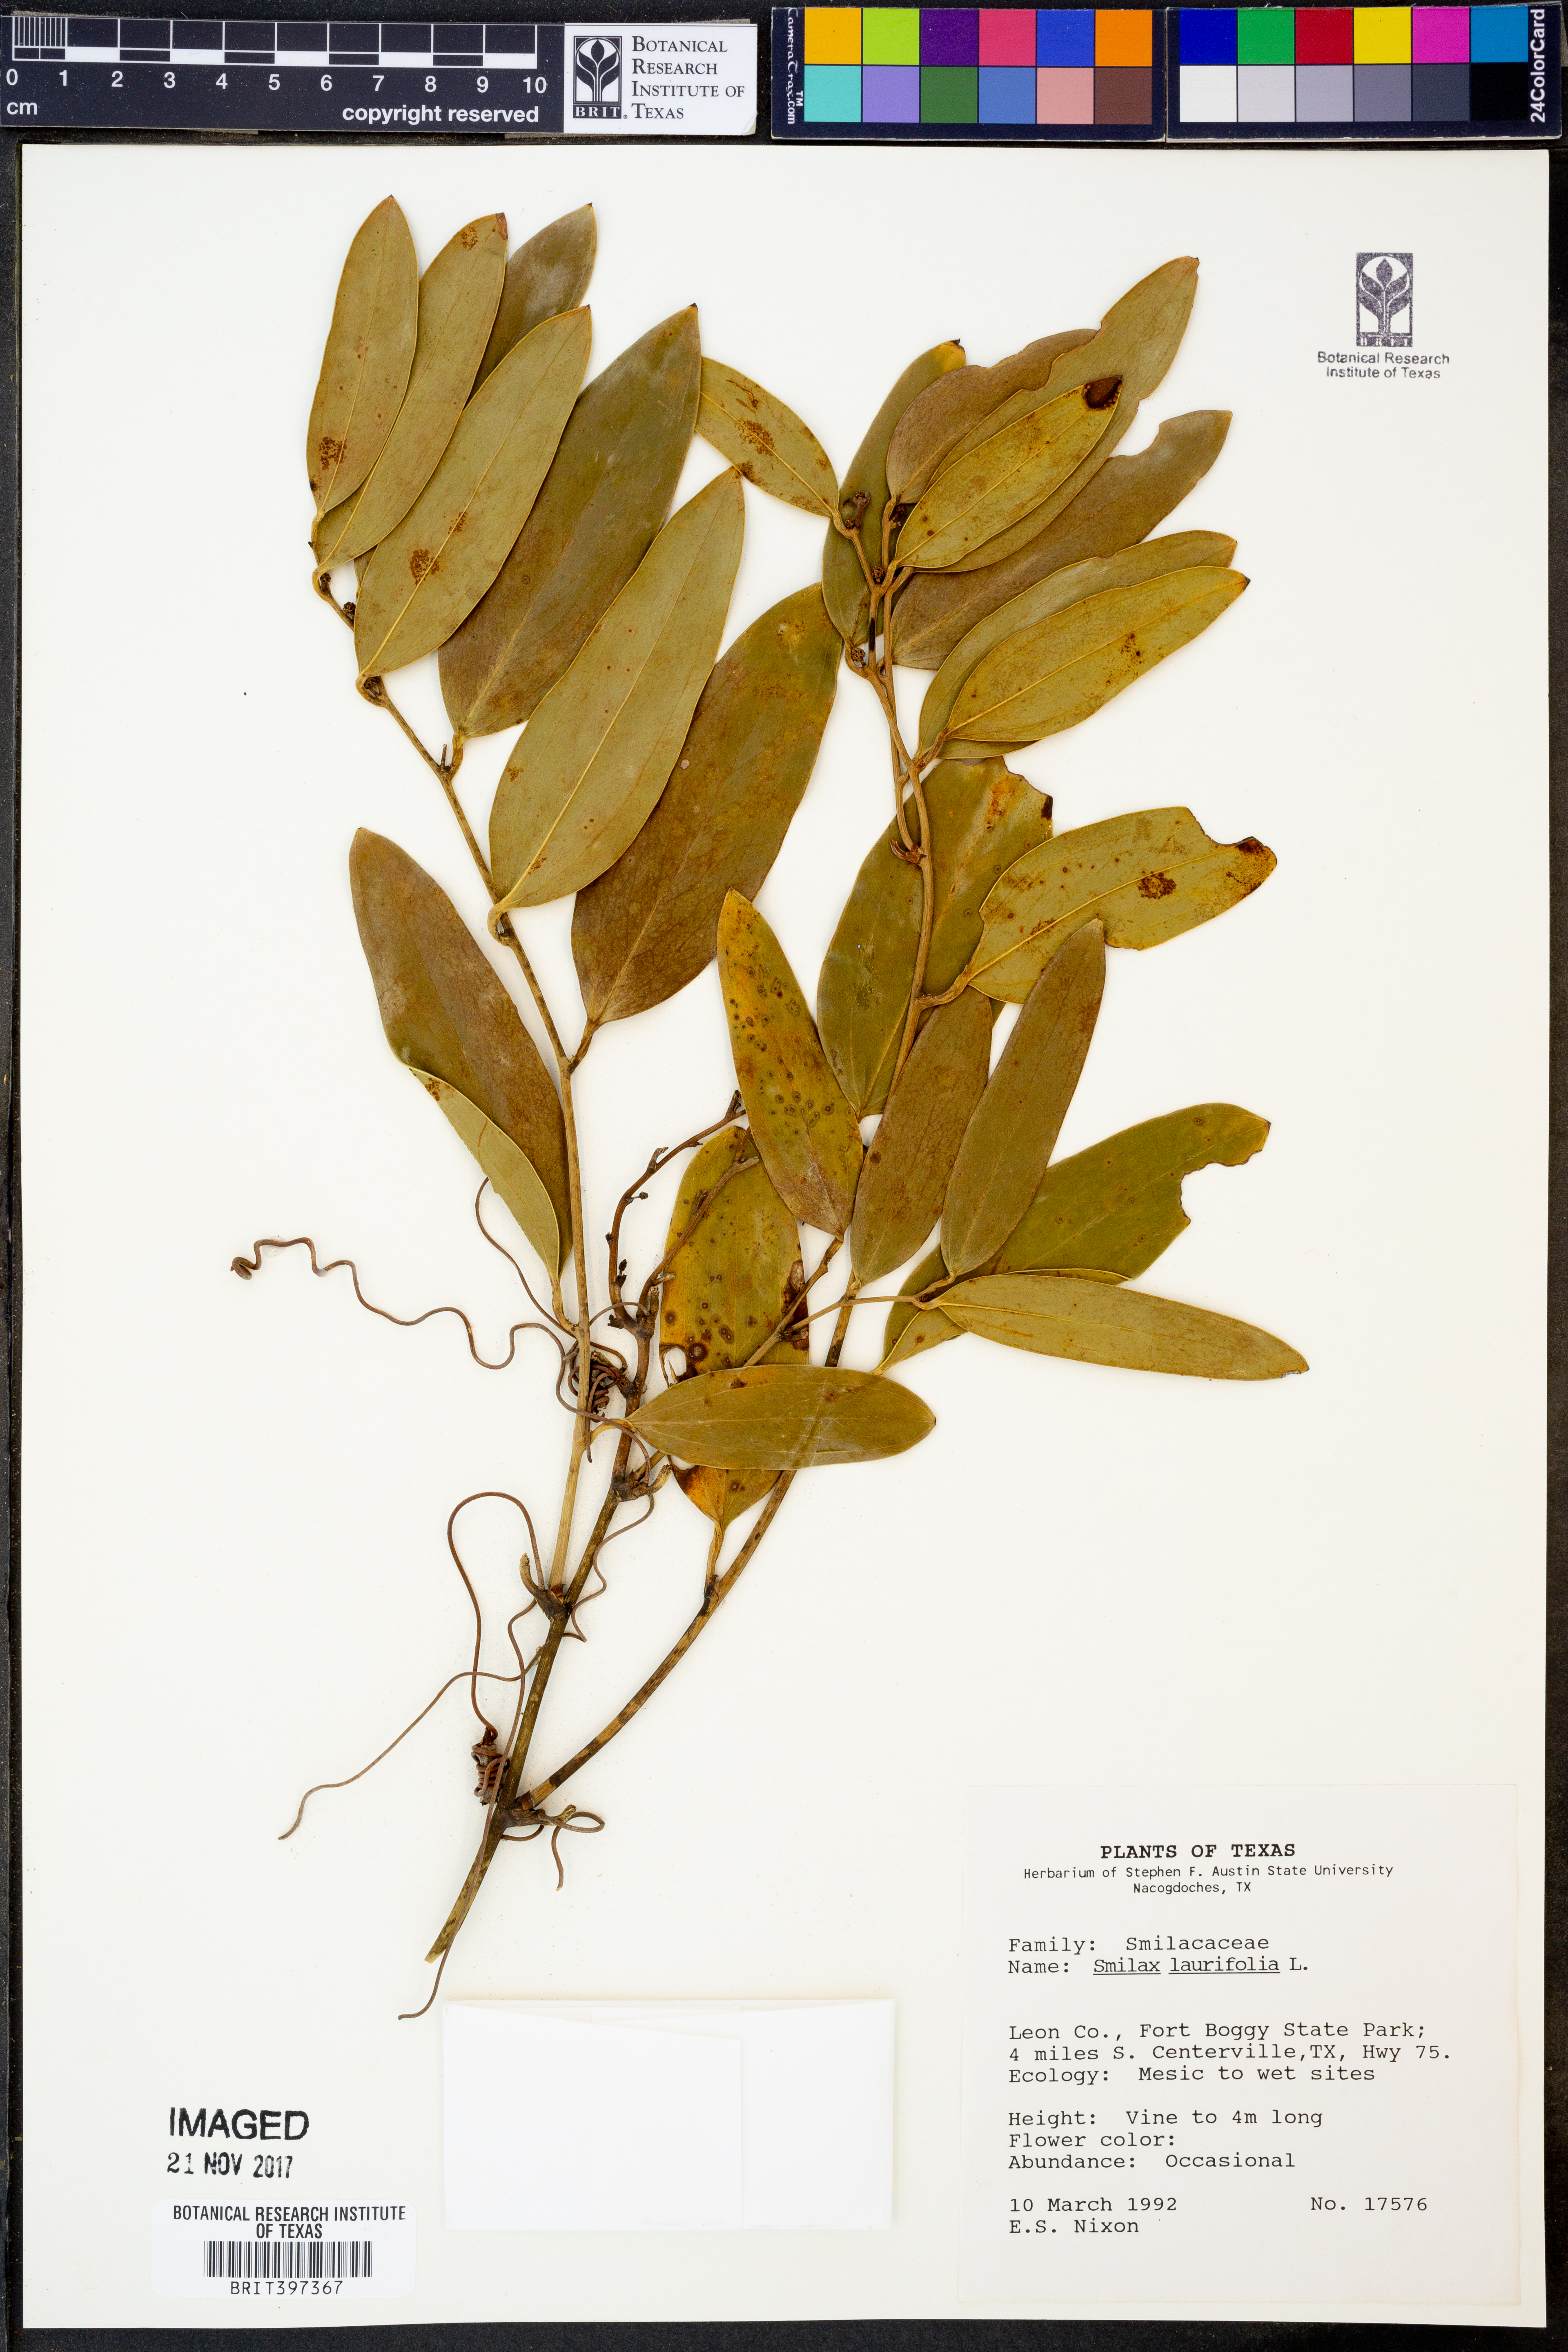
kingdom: Plantae
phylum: Tracheophyta
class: Liliopsida
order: Liliales
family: Smilacaceae
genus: Smilax
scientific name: Smilax laurifolia
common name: Bamboovine
